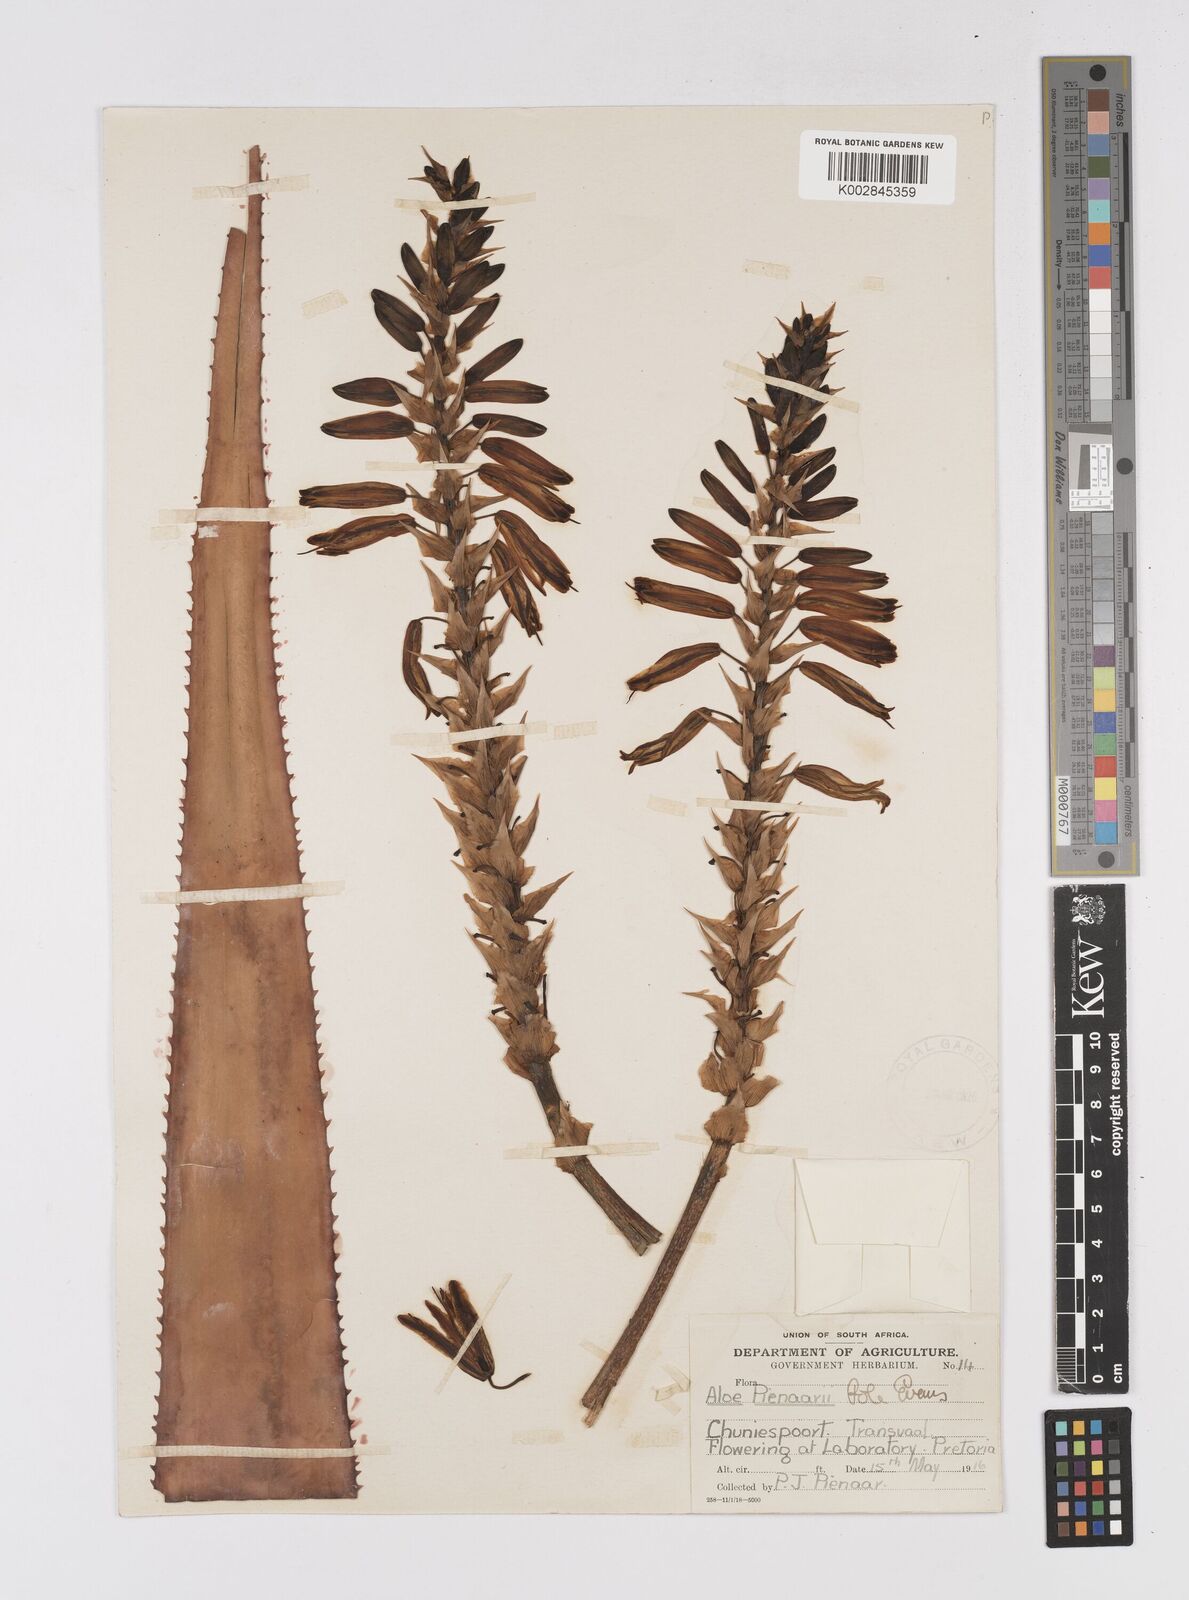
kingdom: Plantae
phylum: Tracheophyta
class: Liliopsida
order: Asparagales
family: Asphodelaceae
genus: Aloe
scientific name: Aloe pienaarii
